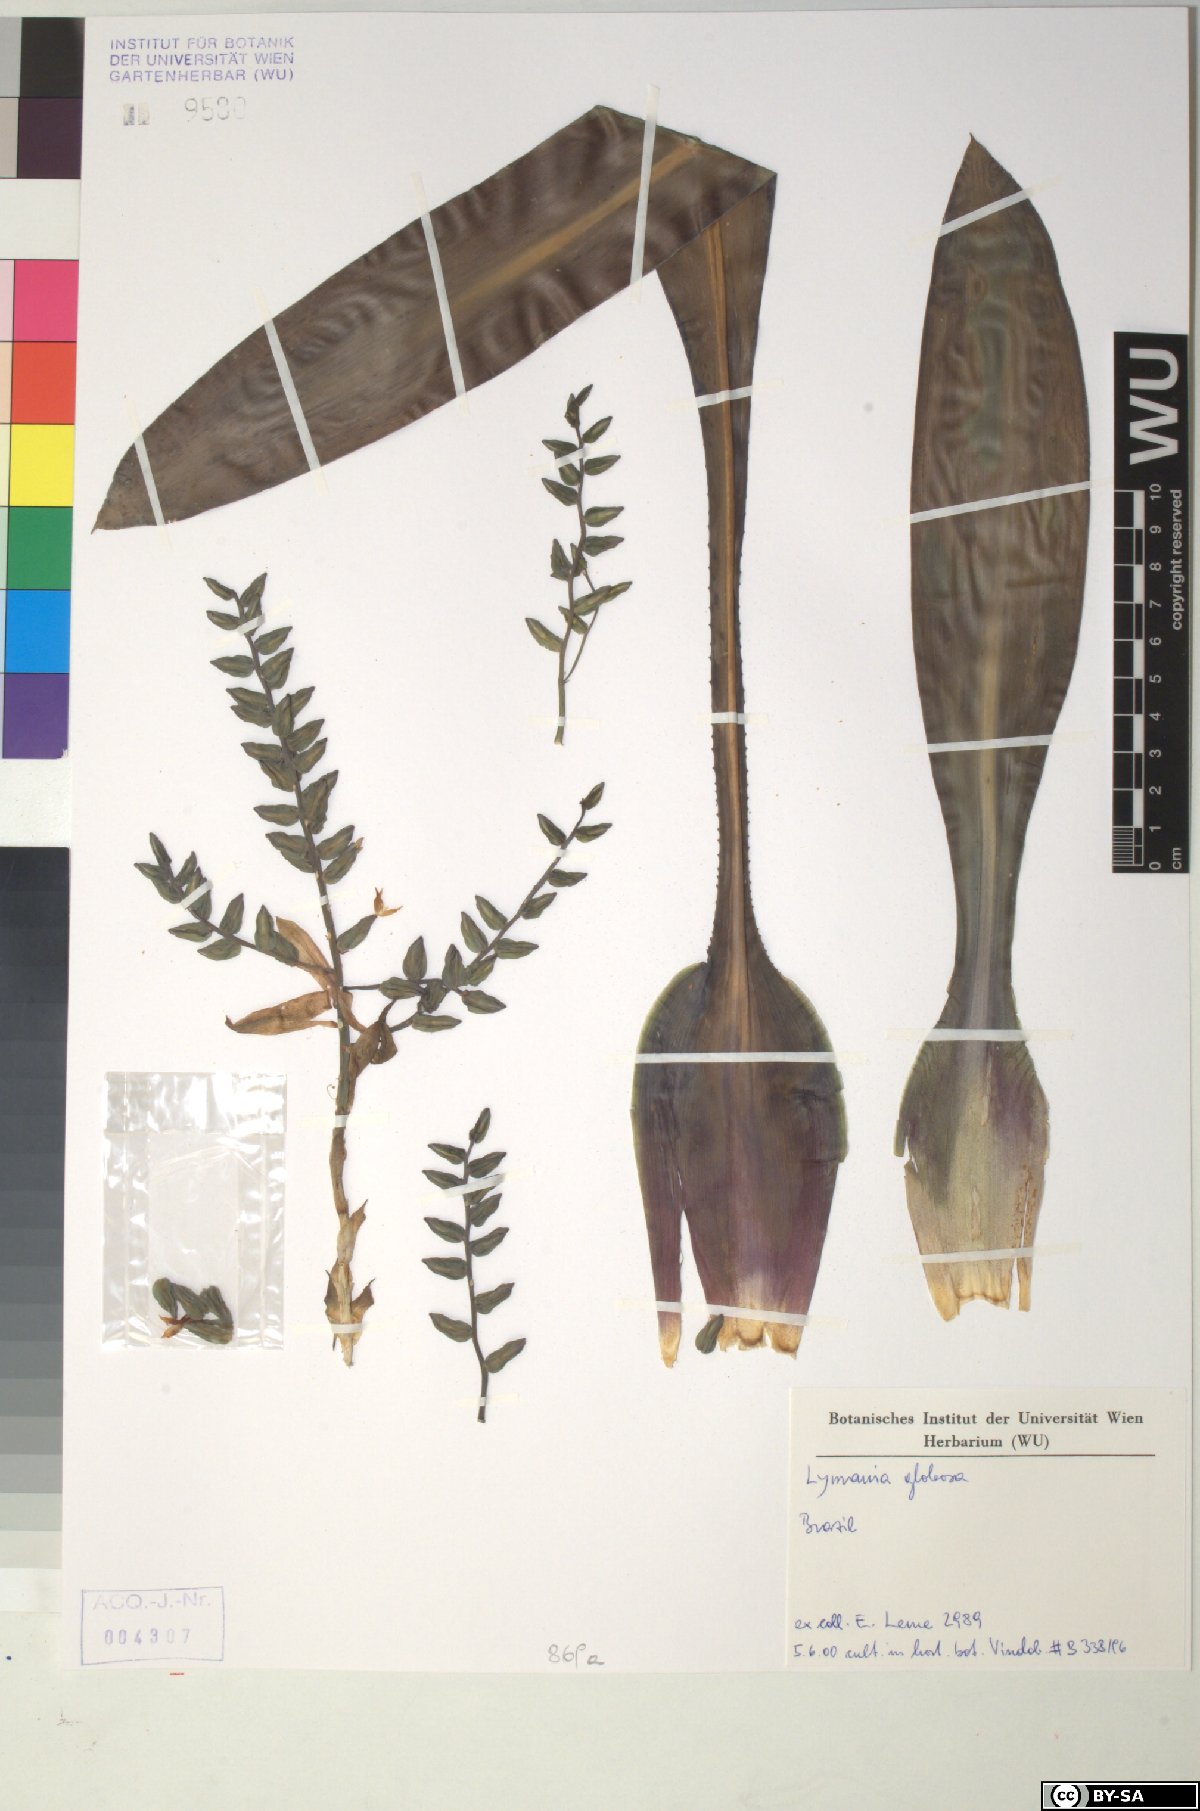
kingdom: Plantae
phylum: Tracheophyta
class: Liliopsida
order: Poales
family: Bromeliaceae
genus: Lymania
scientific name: Lymania globosa
